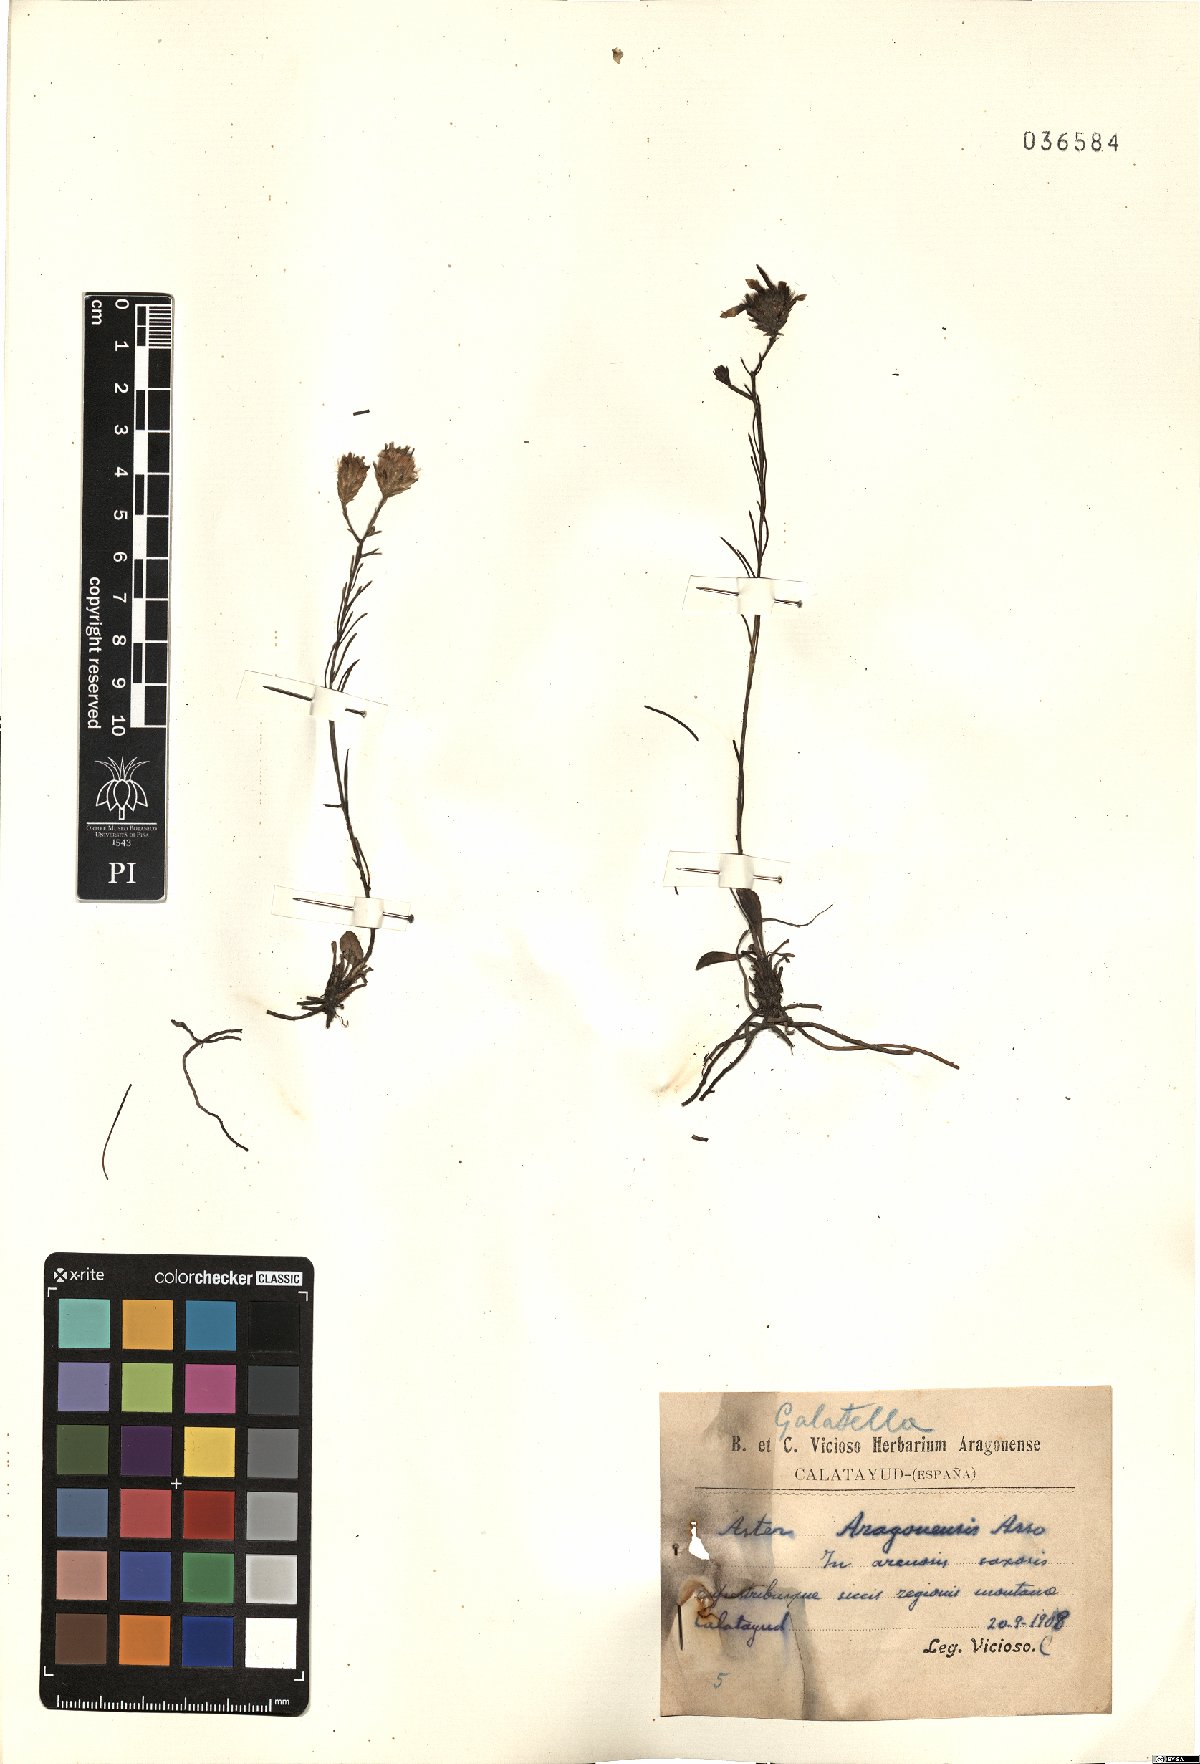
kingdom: Plantae
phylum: Tracheophyta
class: Magnoliopsida
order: Asterales
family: Asteraceae
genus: Galatella
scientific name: Galatella aragonensis
